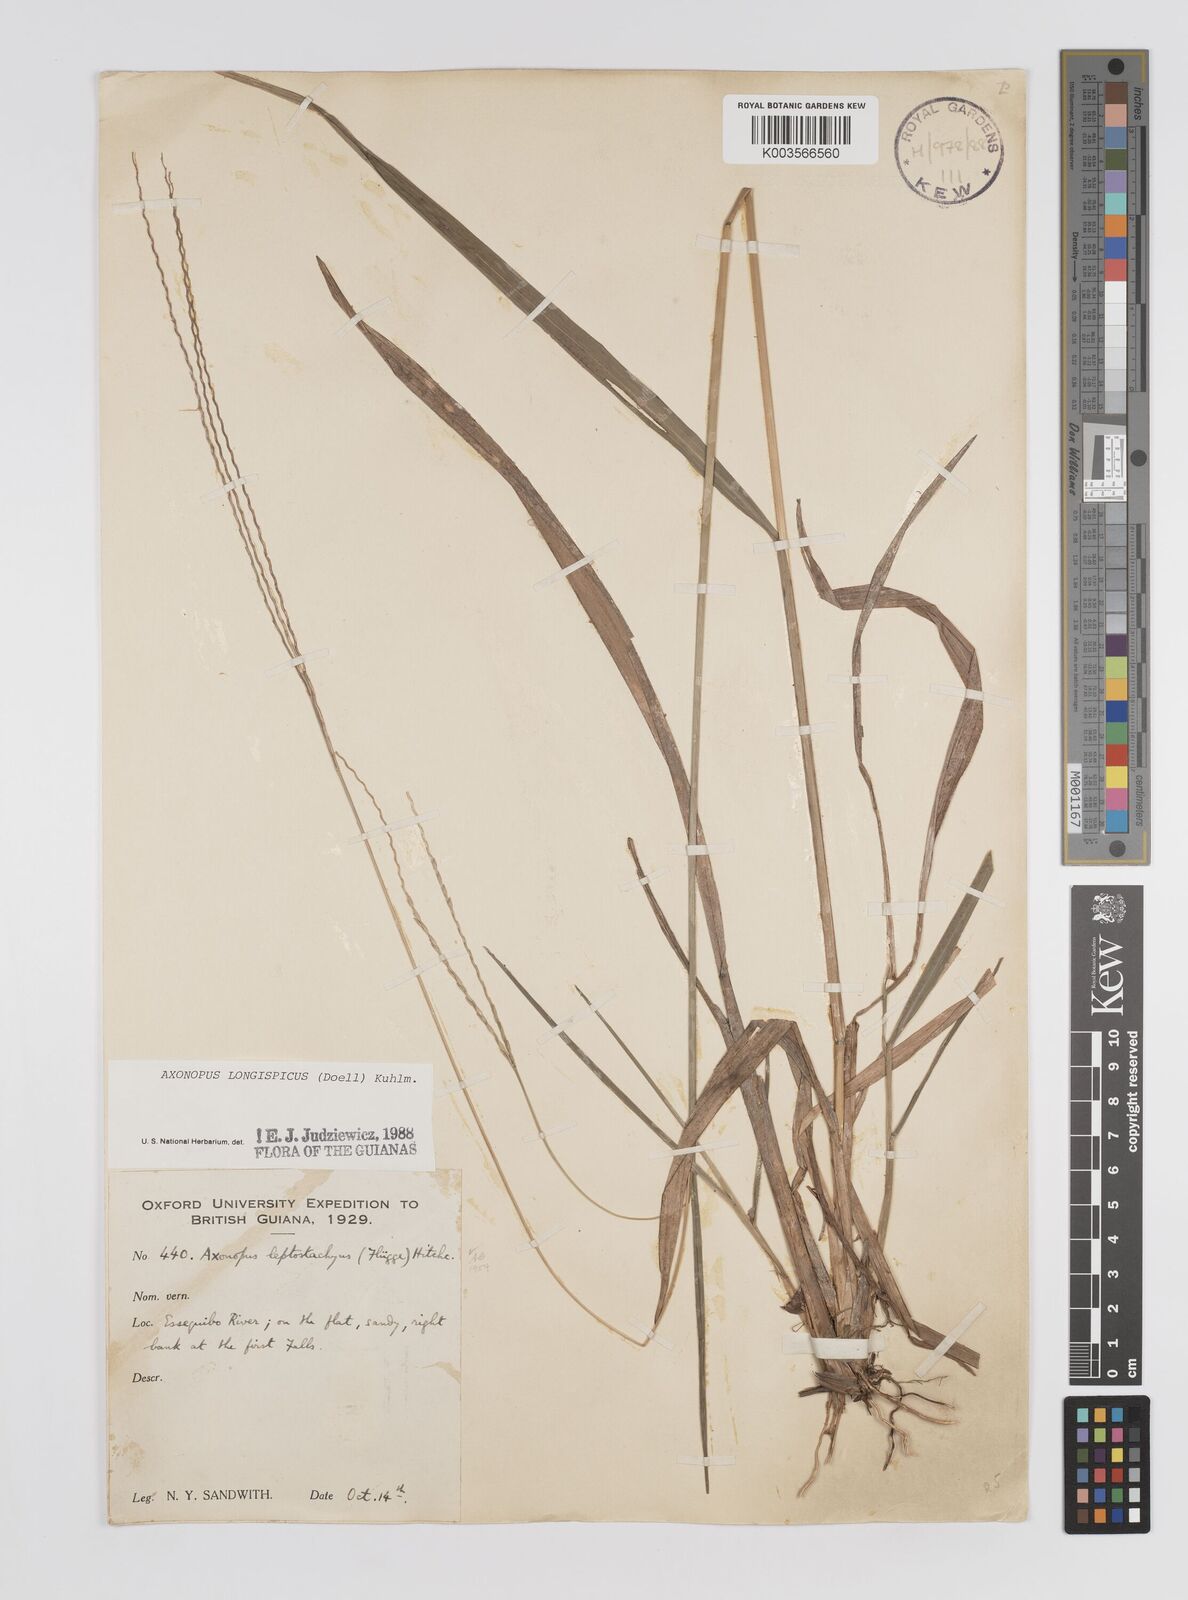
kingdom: Plantae
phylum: Tracheophyta
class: Liliopsida
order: Poales
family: Poaceae
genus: Axonopus
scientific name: Axonopus longispicus
